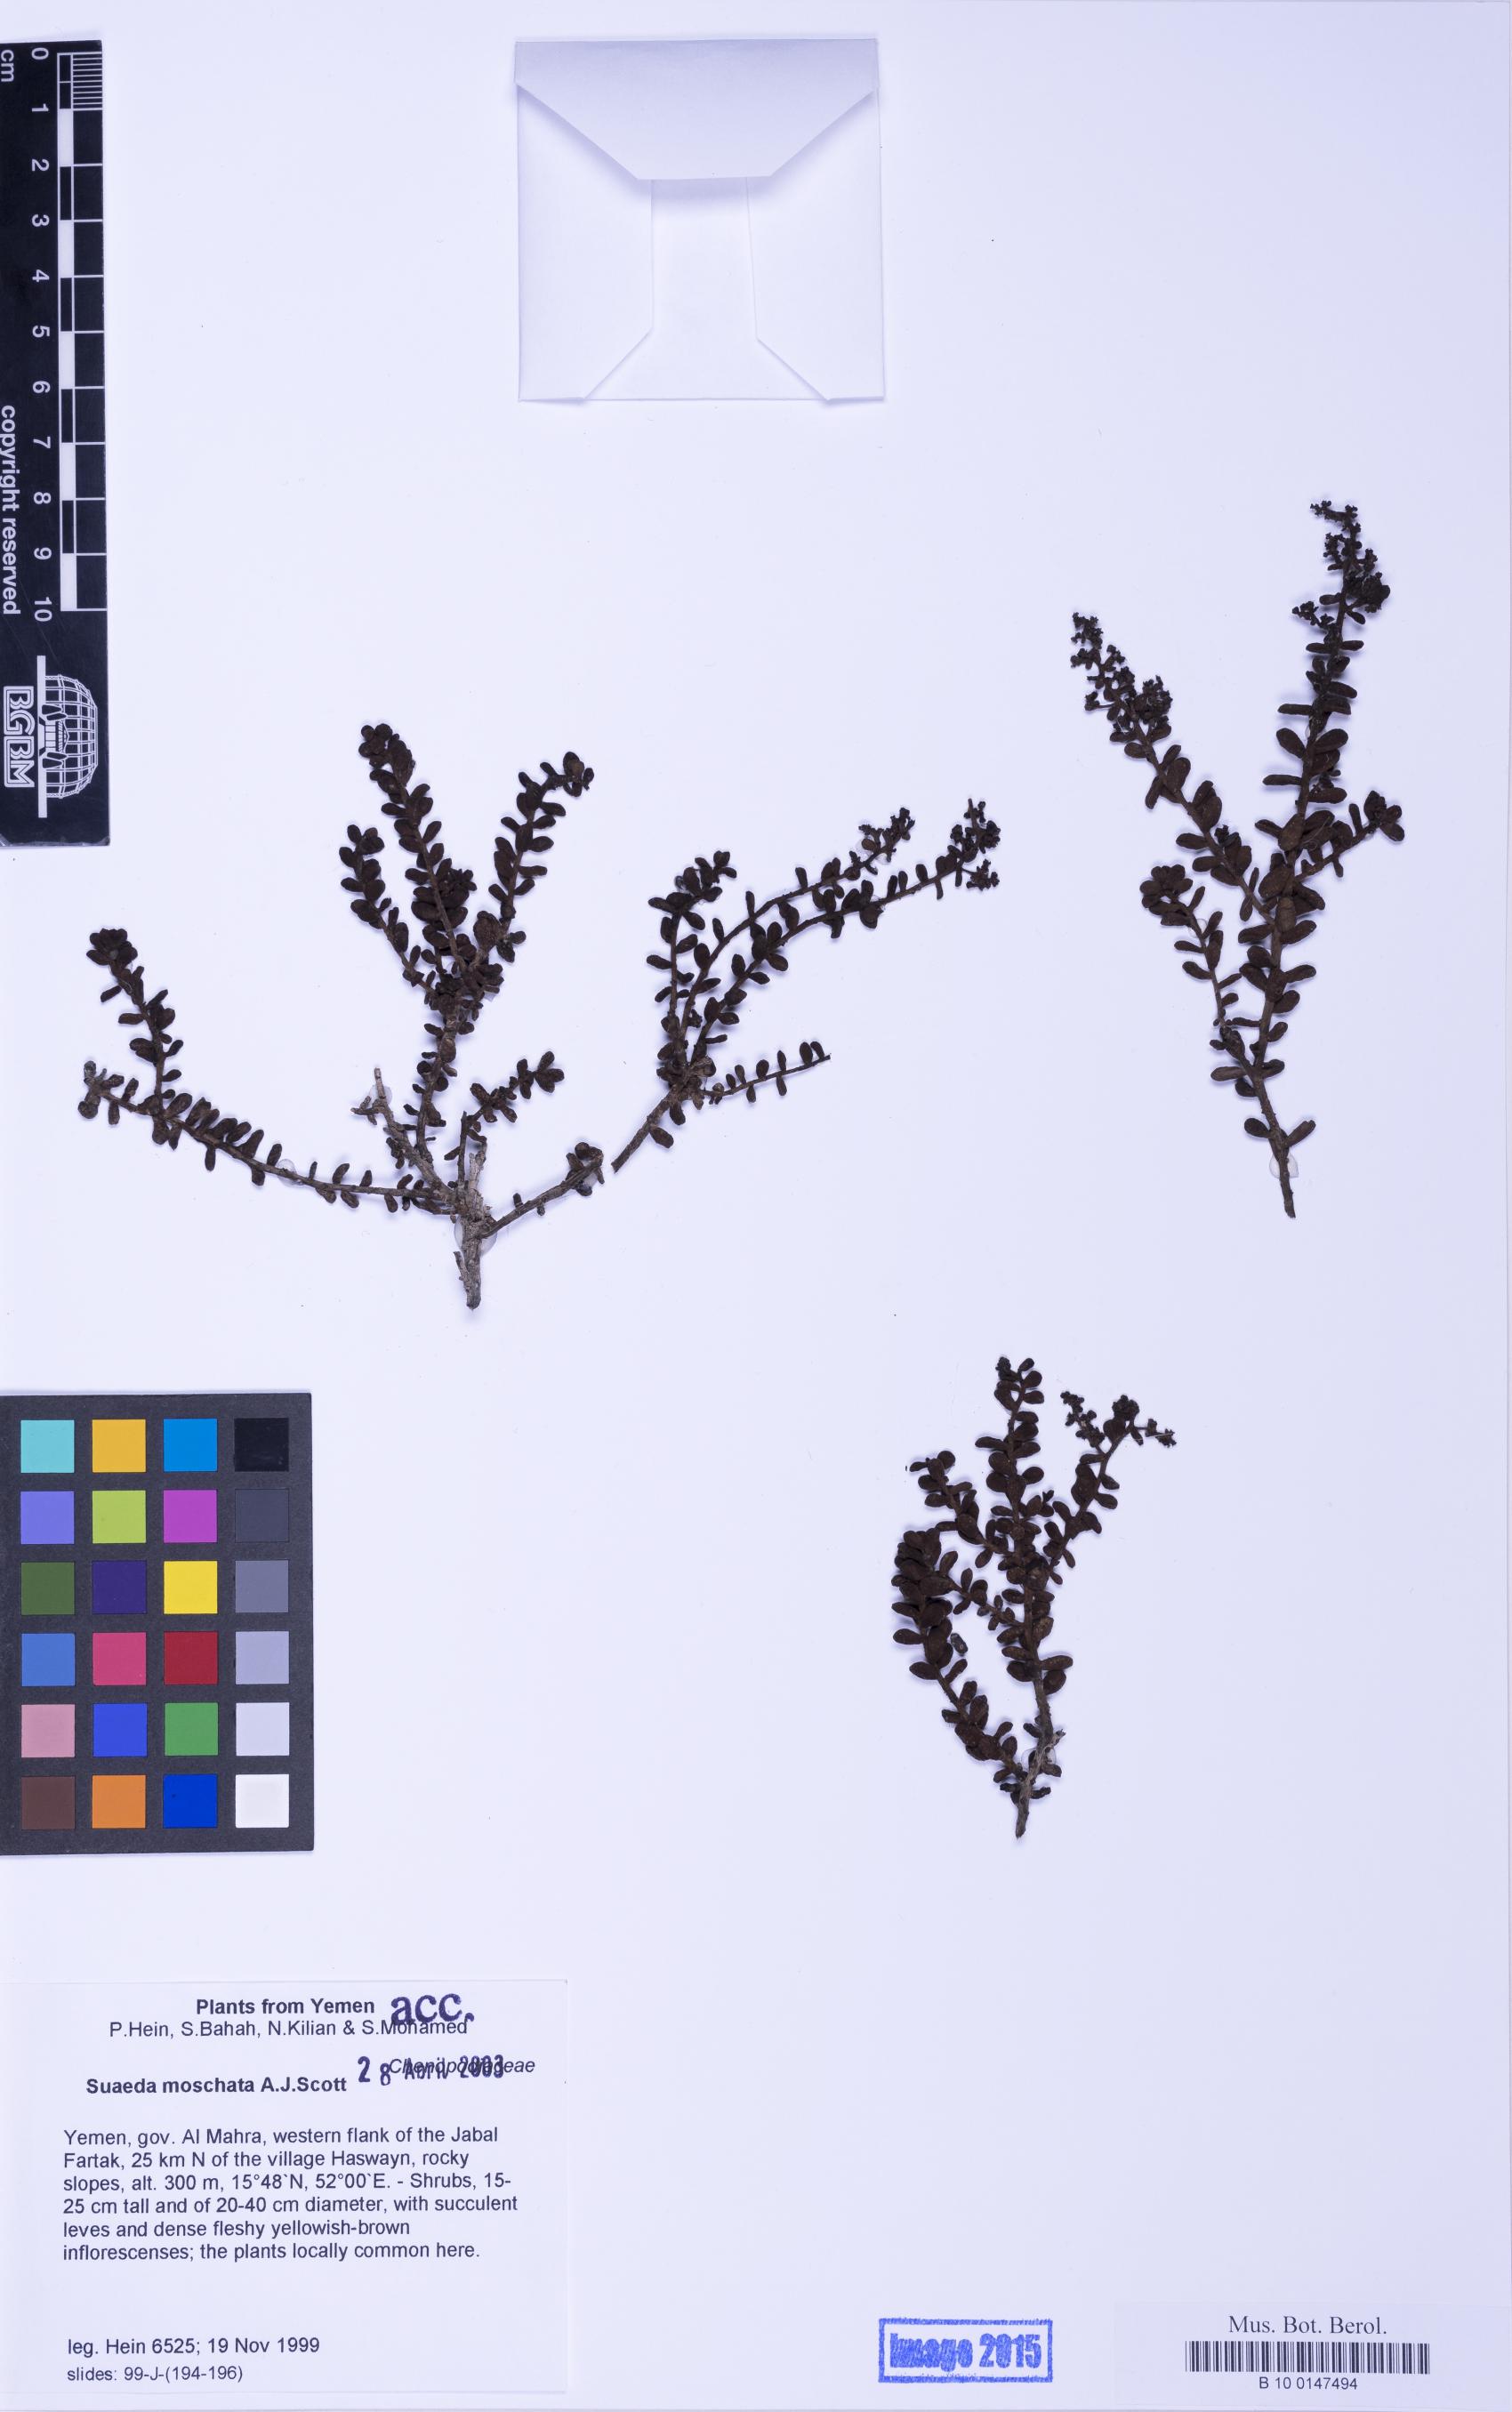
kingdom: Plantae
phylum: Tracheophyta
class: Magnoliopsida
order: Caryophyllales
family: Amaranthaceae
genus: Suaeda
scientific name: Suaeda moschata
